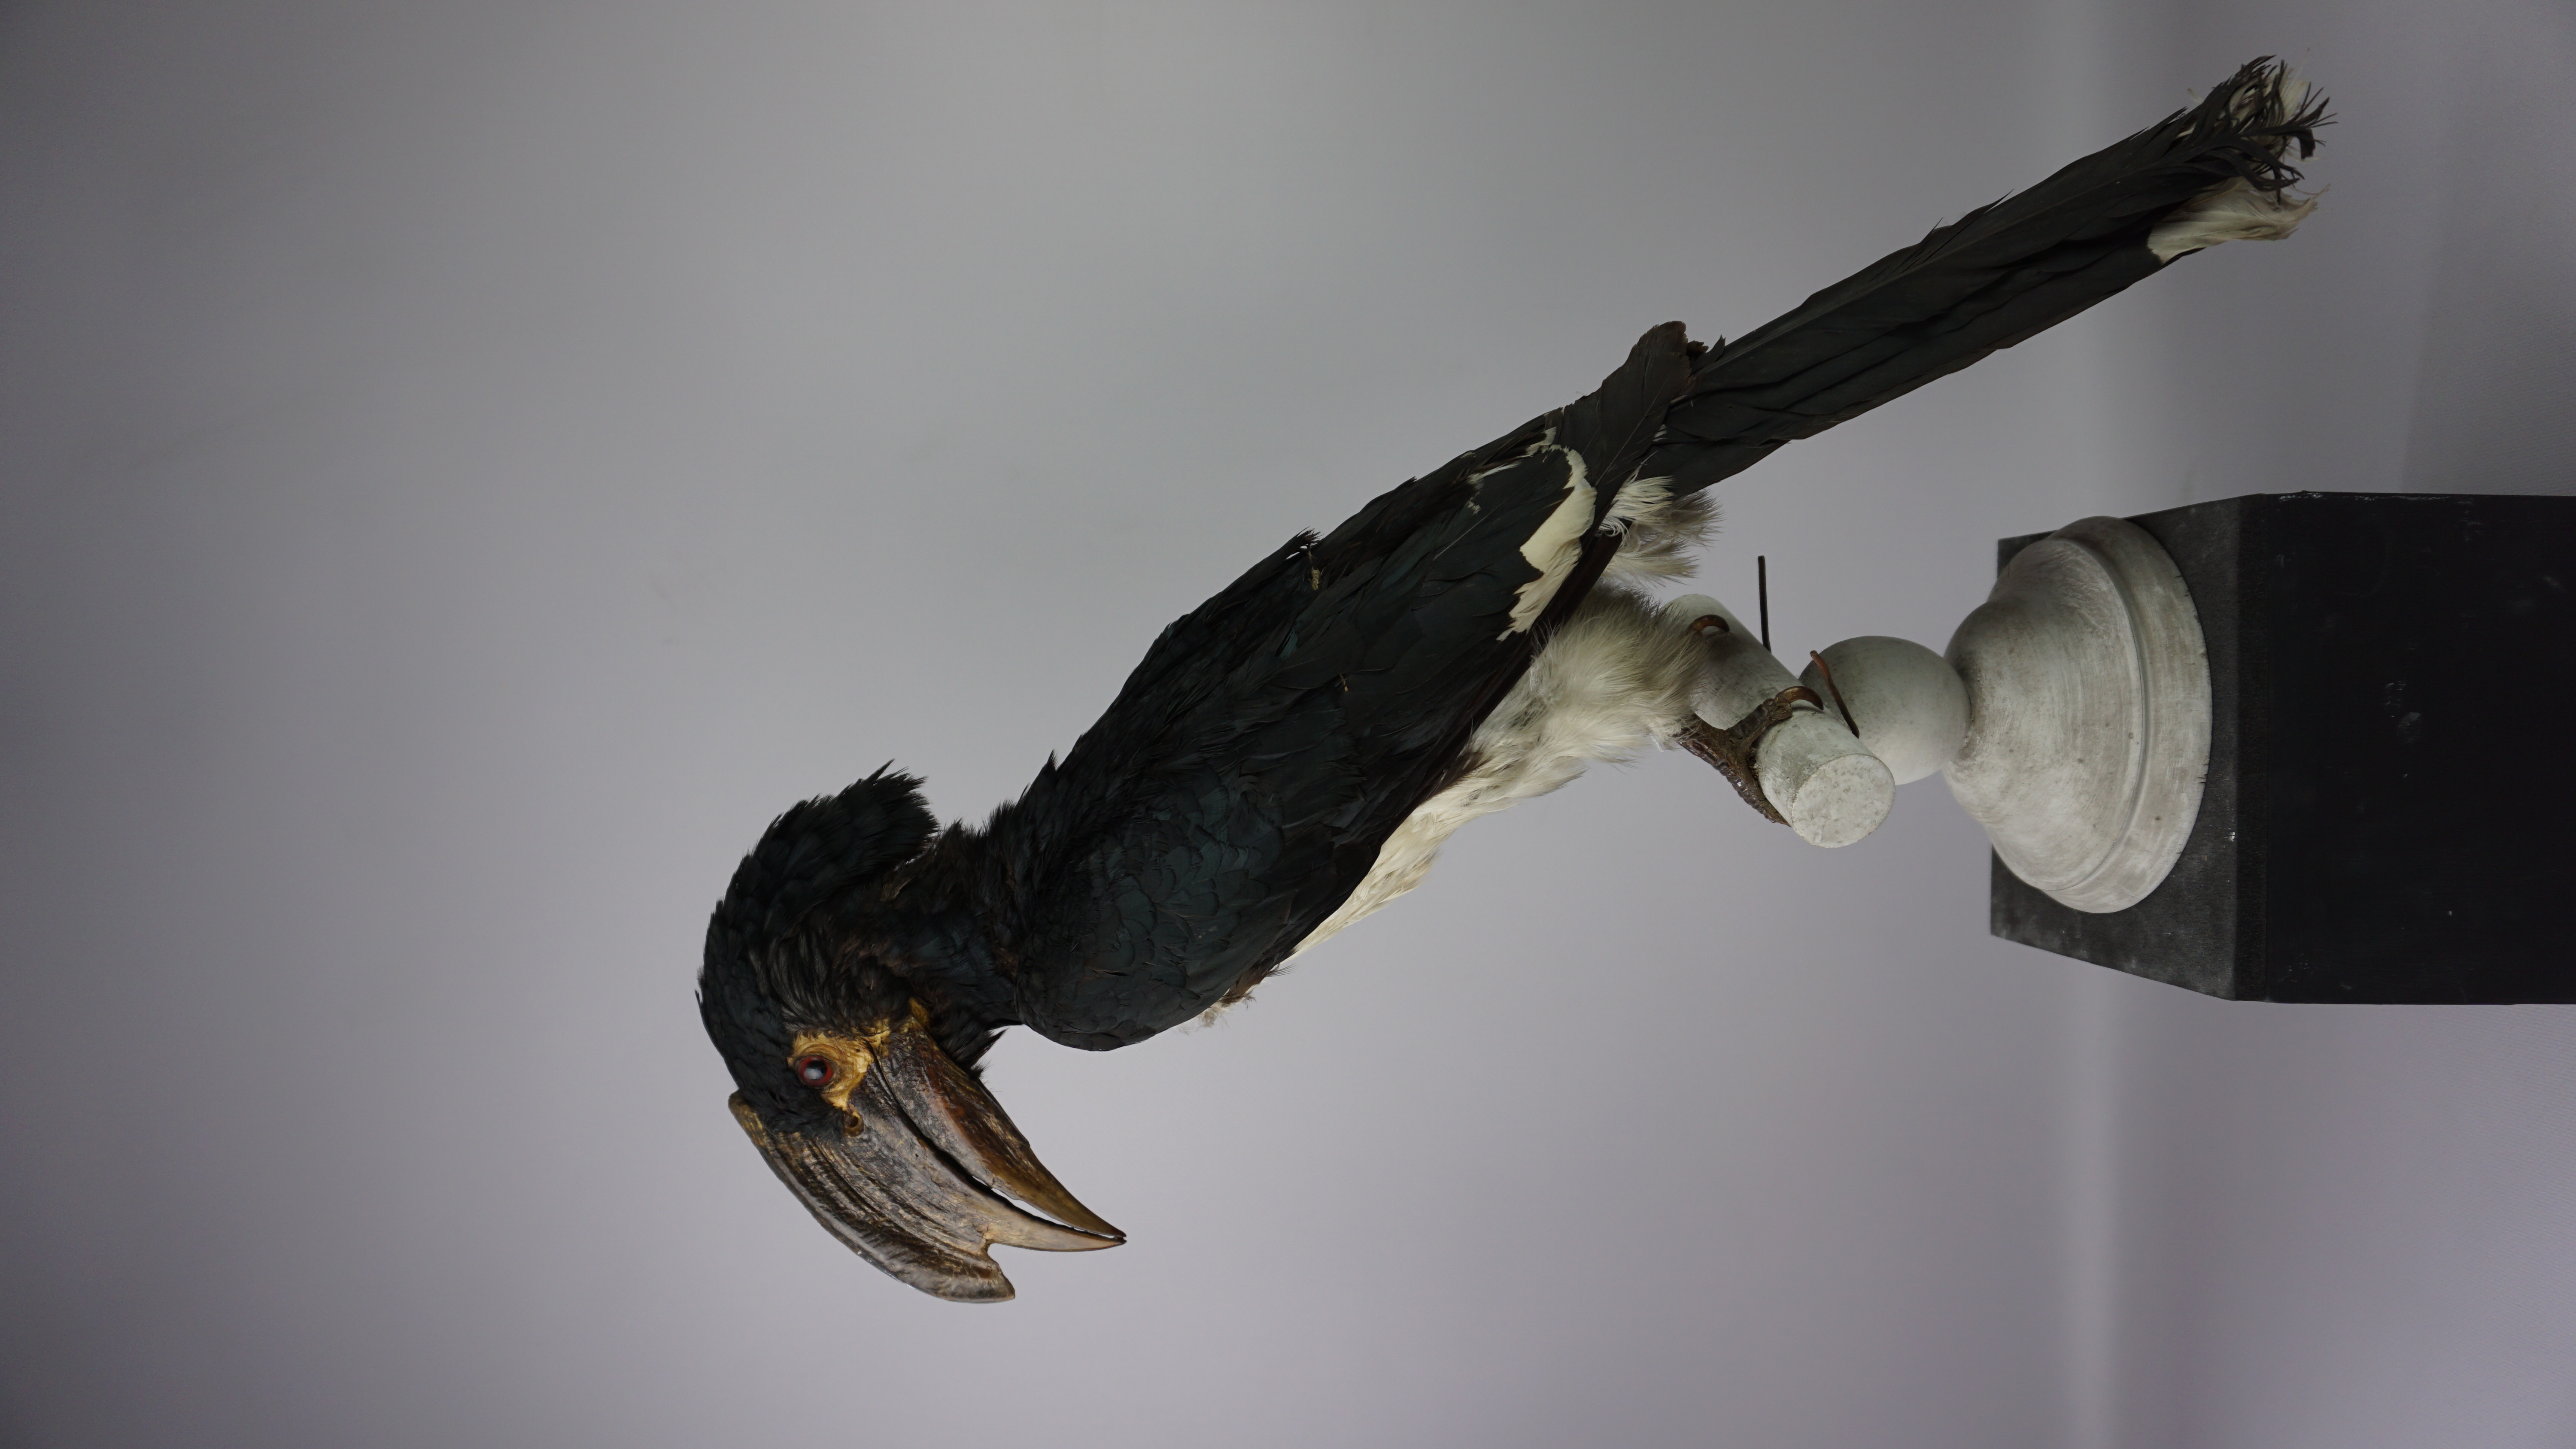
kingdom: Animalia
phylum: Chordata
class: Aves
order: Bucerotiformes
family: Bucerotidae
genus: Bycanistes
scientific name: Bycanistes bucinator
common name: Trumpeter hornbill
